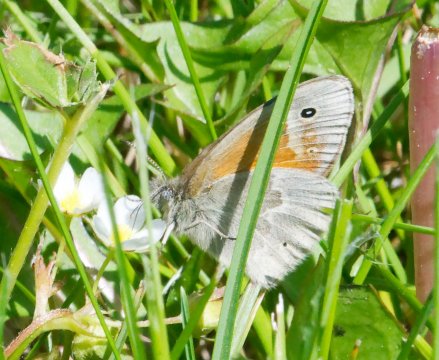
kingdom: Animalia
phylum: Arthropoda
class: Insecta
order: Lepidoptera
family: Nymphalidae
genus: Coenonympha
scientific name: Coenonympha tullia
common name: Large Heath
